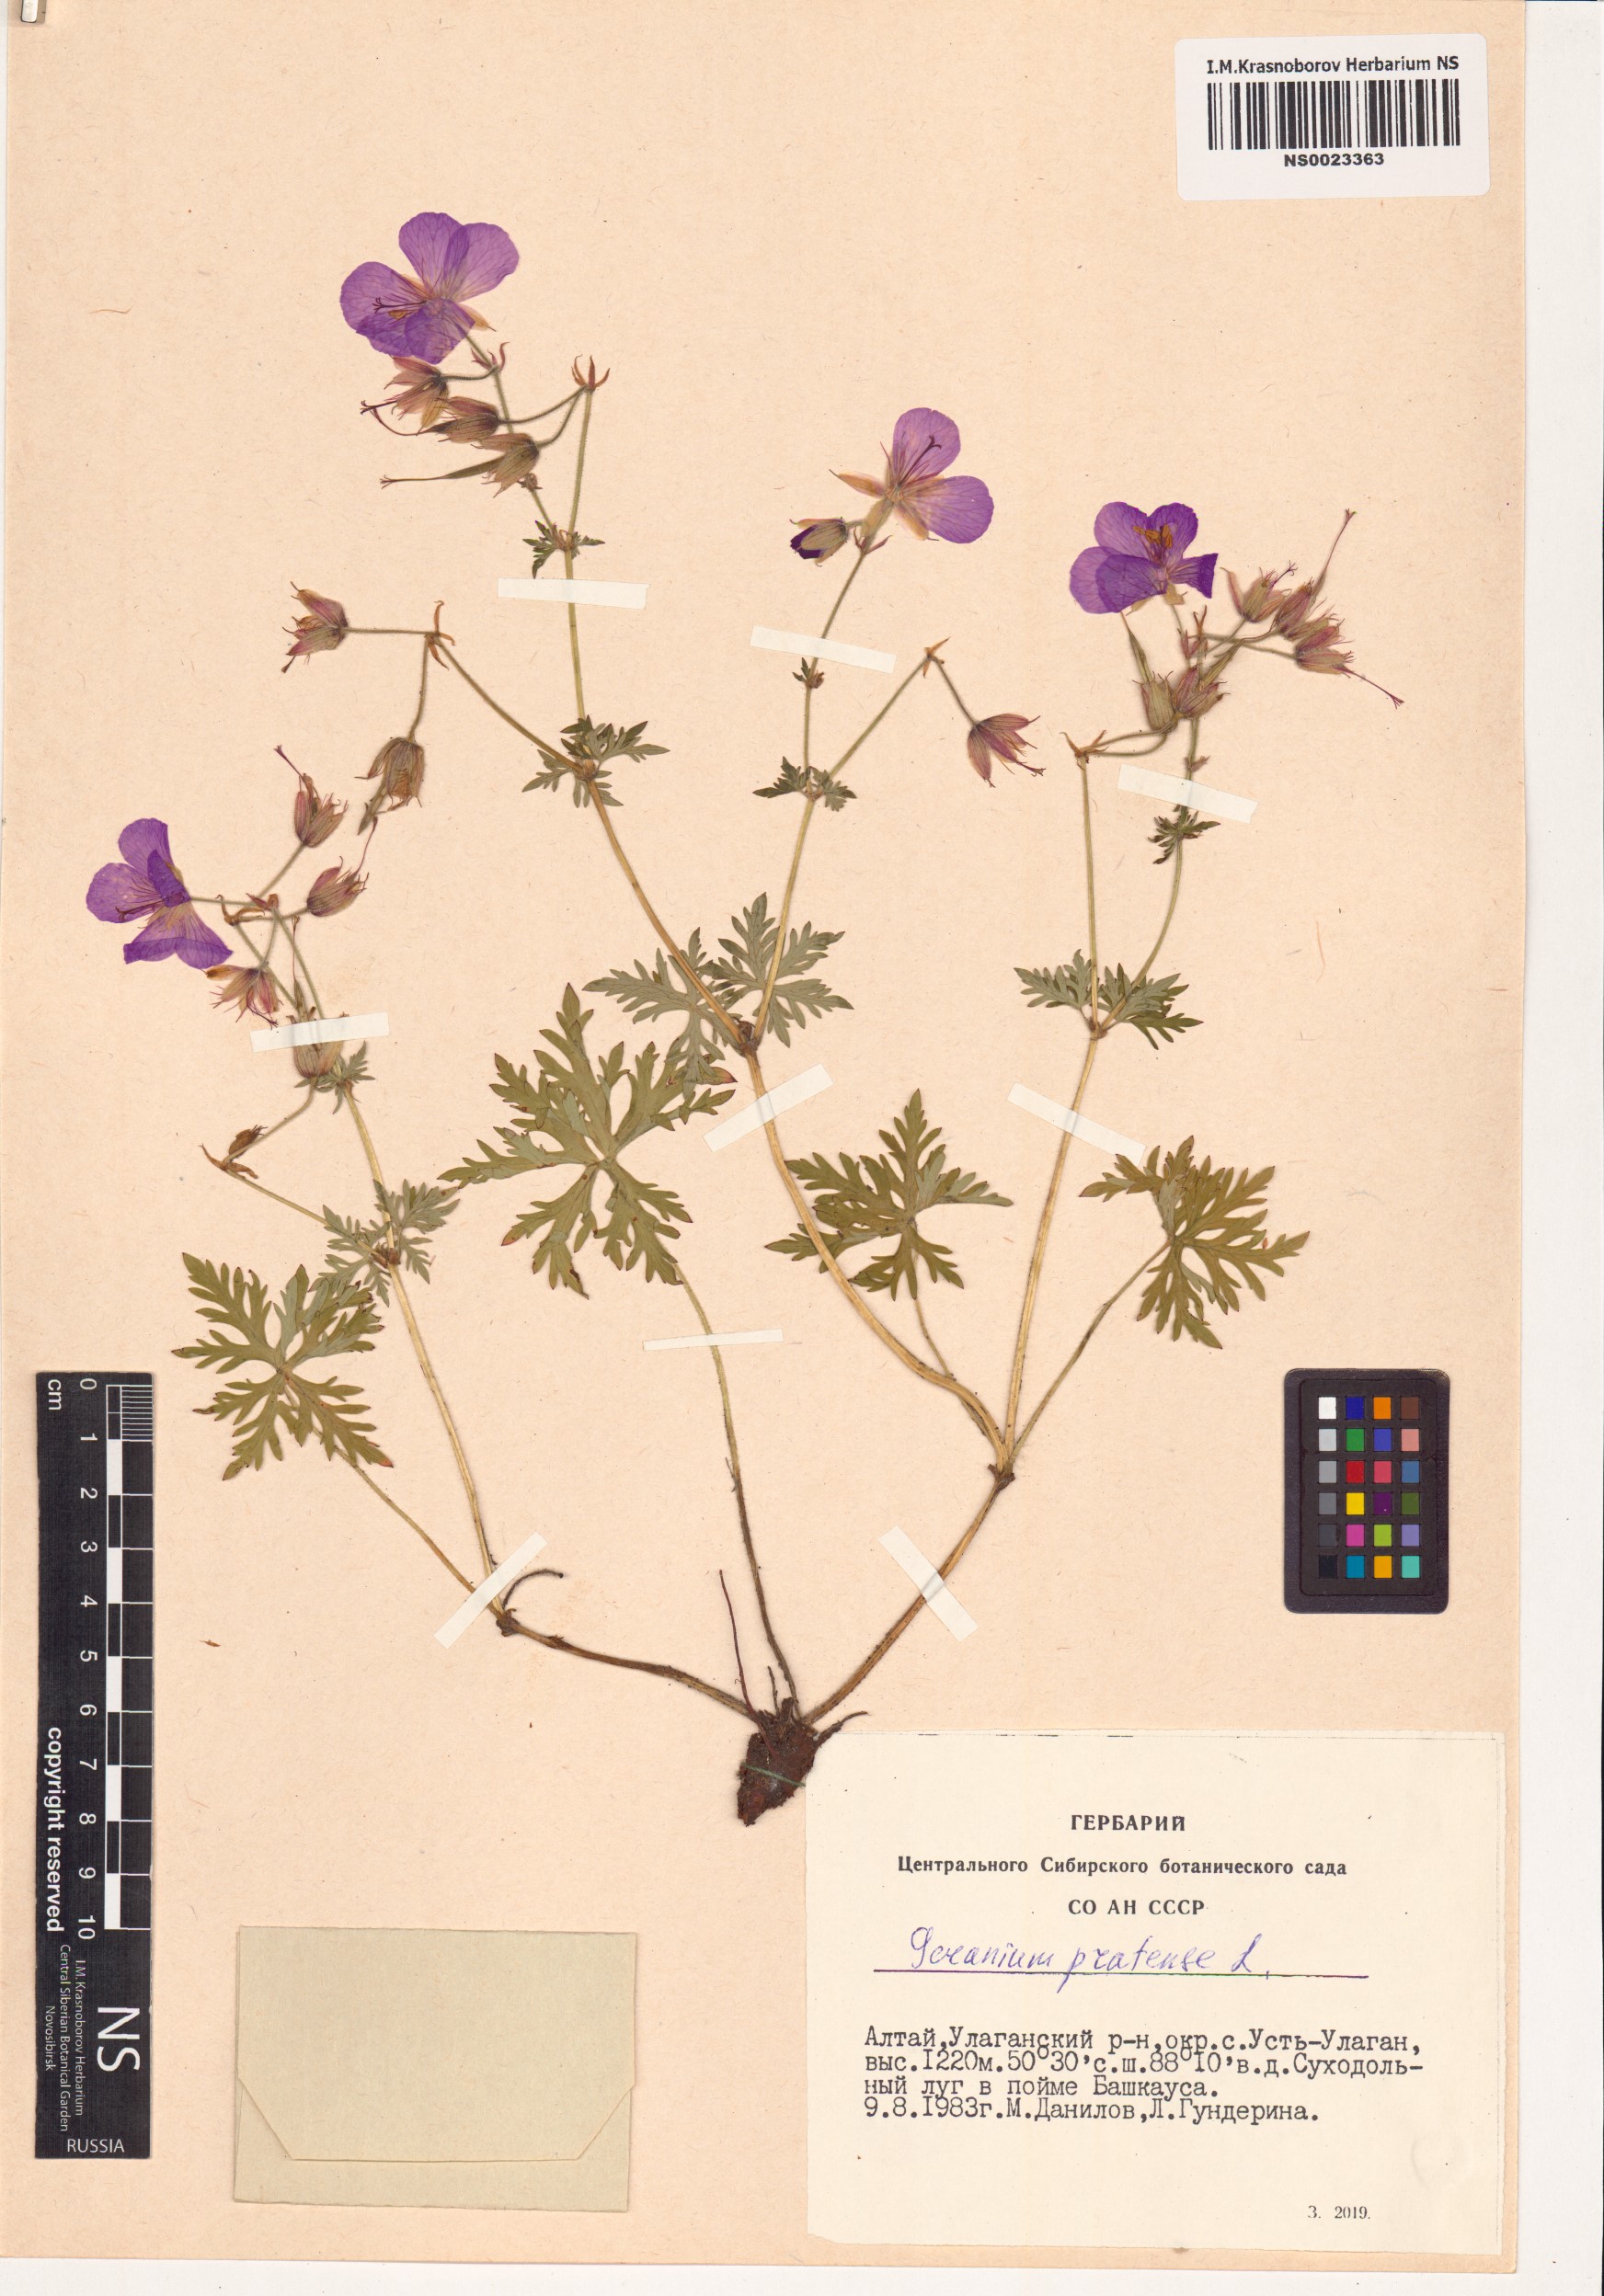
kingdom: Plantae
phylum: Tracheophyta
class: Magnoliopsida
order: Geraniales
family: Geraniaceae
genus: Geranium
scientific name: Geranium pratense
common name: Meadow crane's-bill
